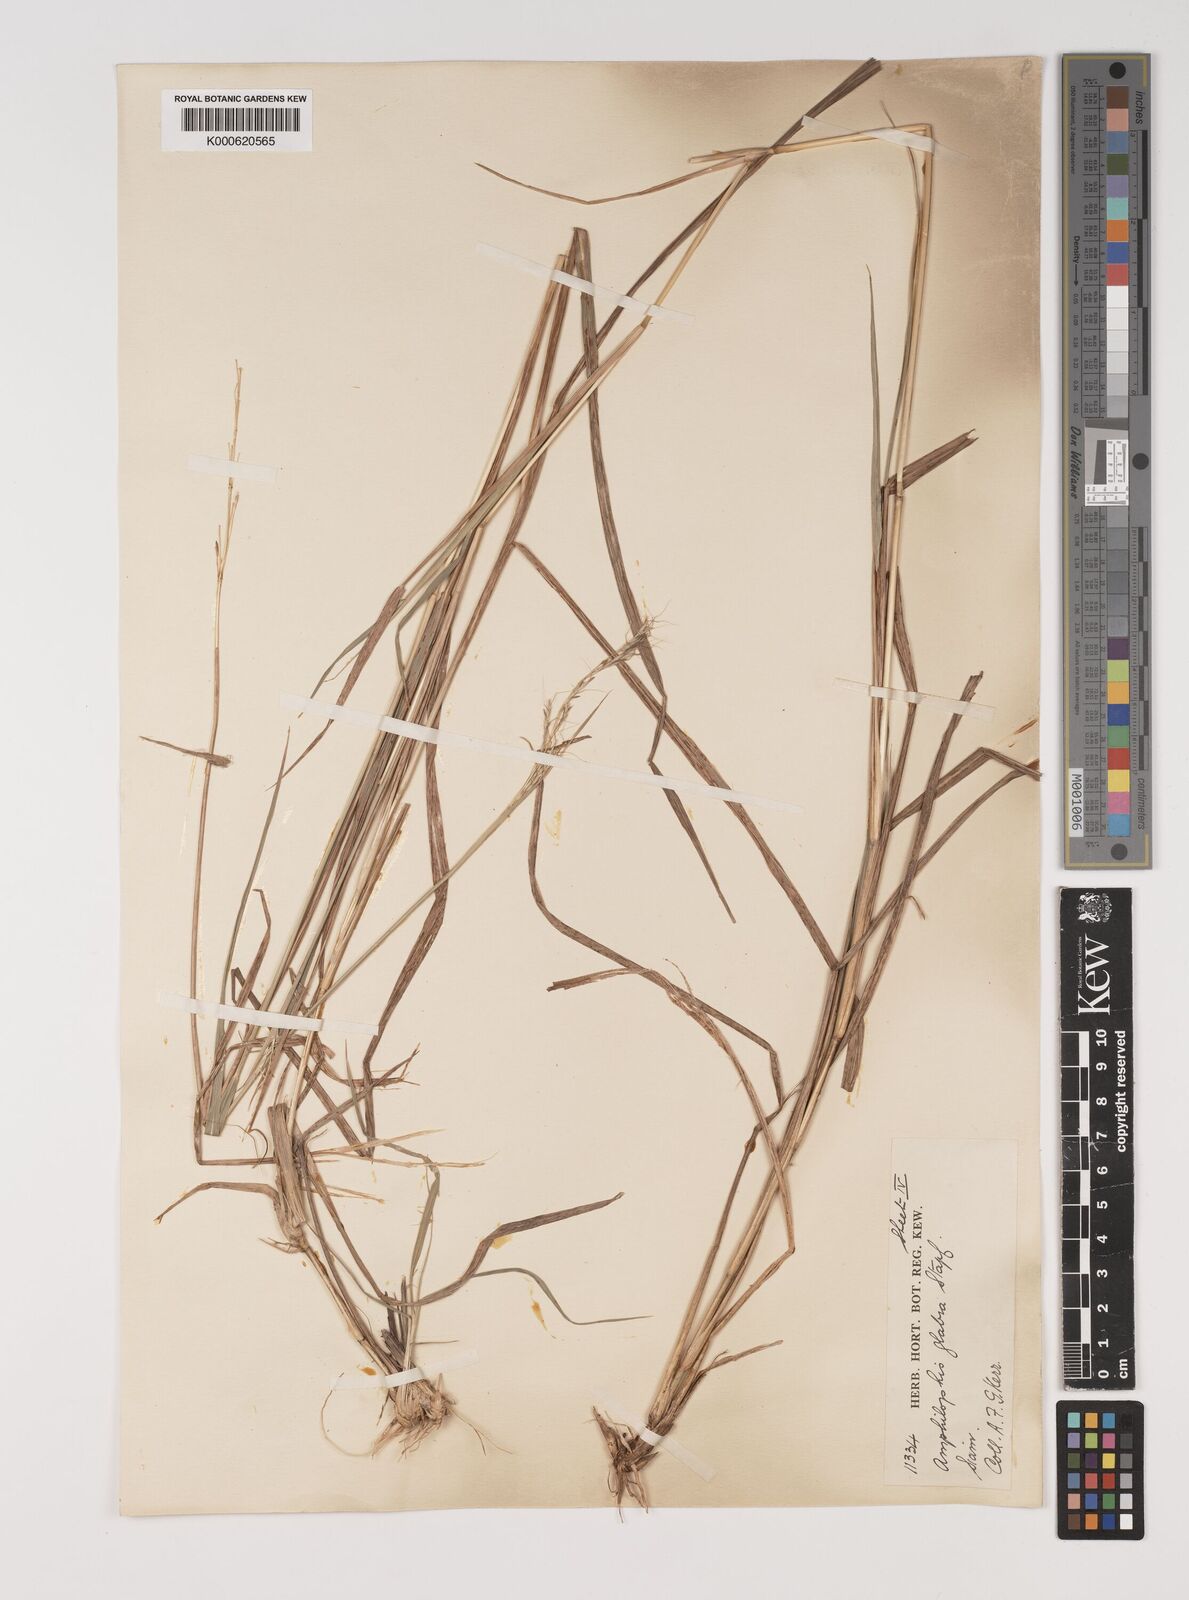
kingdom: Plantae
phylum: Tracheophyta
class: Liliopsida
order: Poales
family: Poaceae
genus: Bothriochloa
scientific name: Bothriochloa bladhii
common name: Caucasian bluestem
